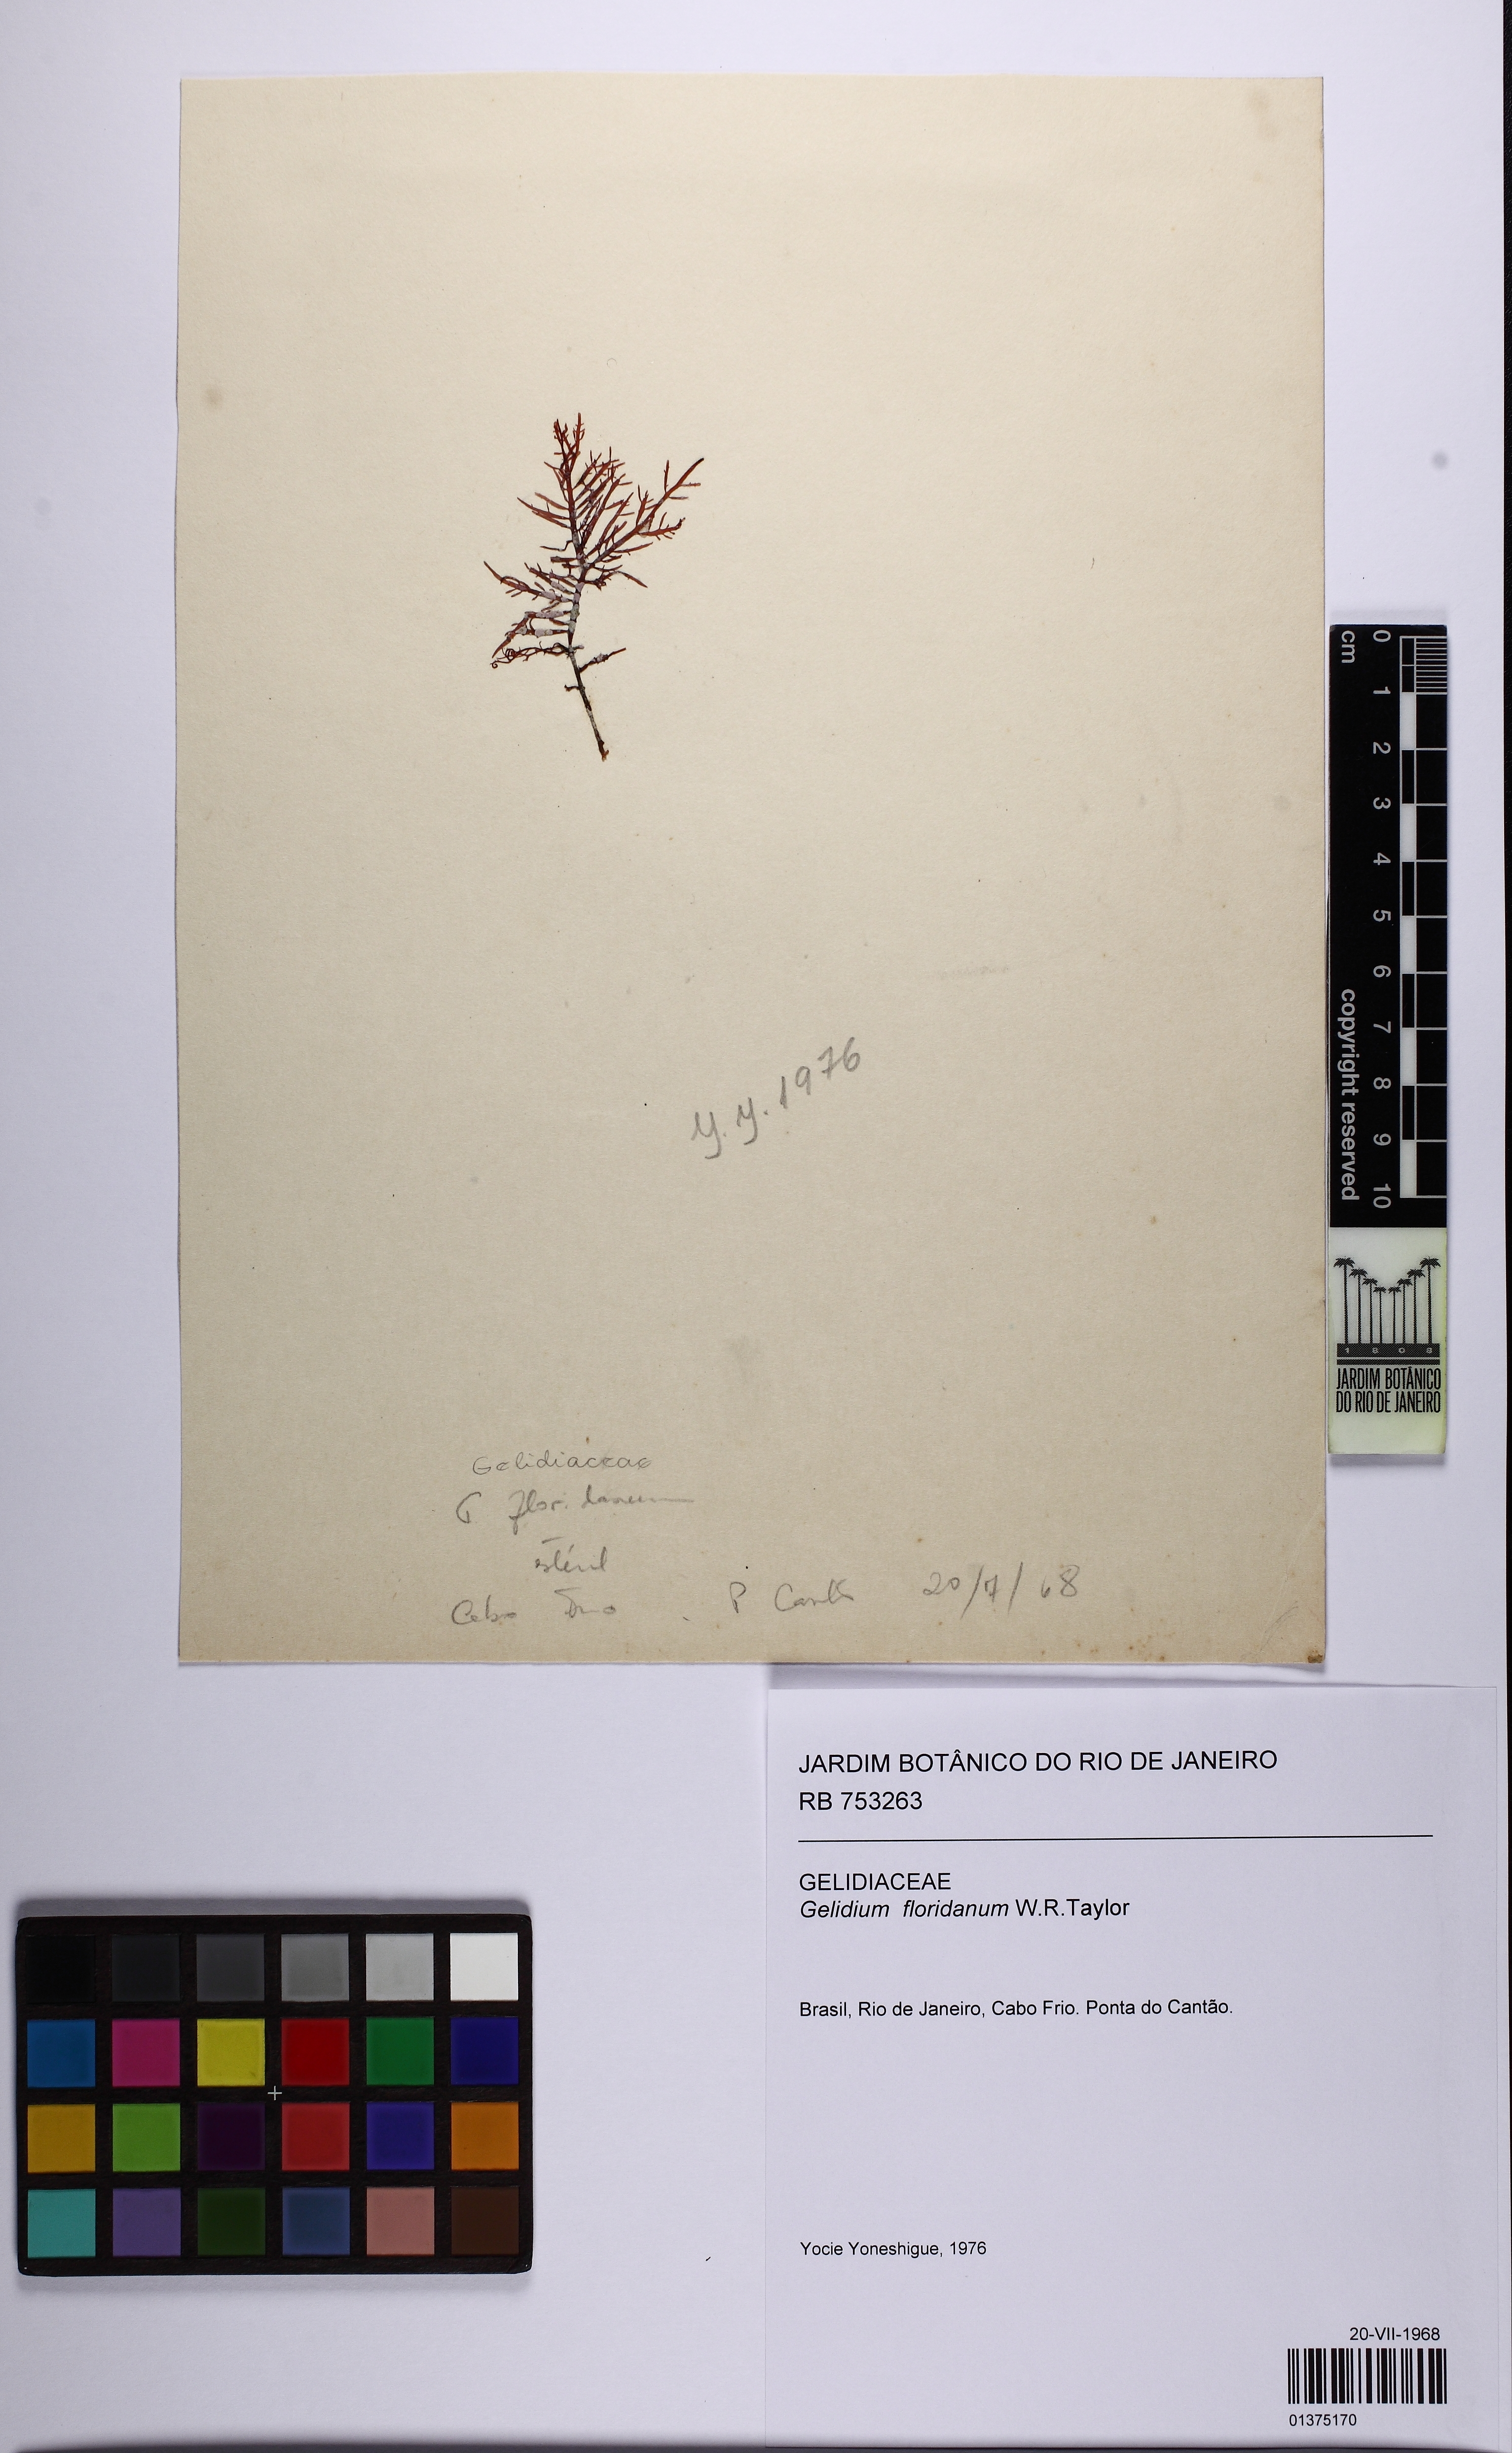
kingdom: Plantae
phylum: Rhodophyta
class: Florideophyceae
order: Gelidiales
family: Gelidiaceae
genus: Gelidium
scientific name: Gelidium floridanum
